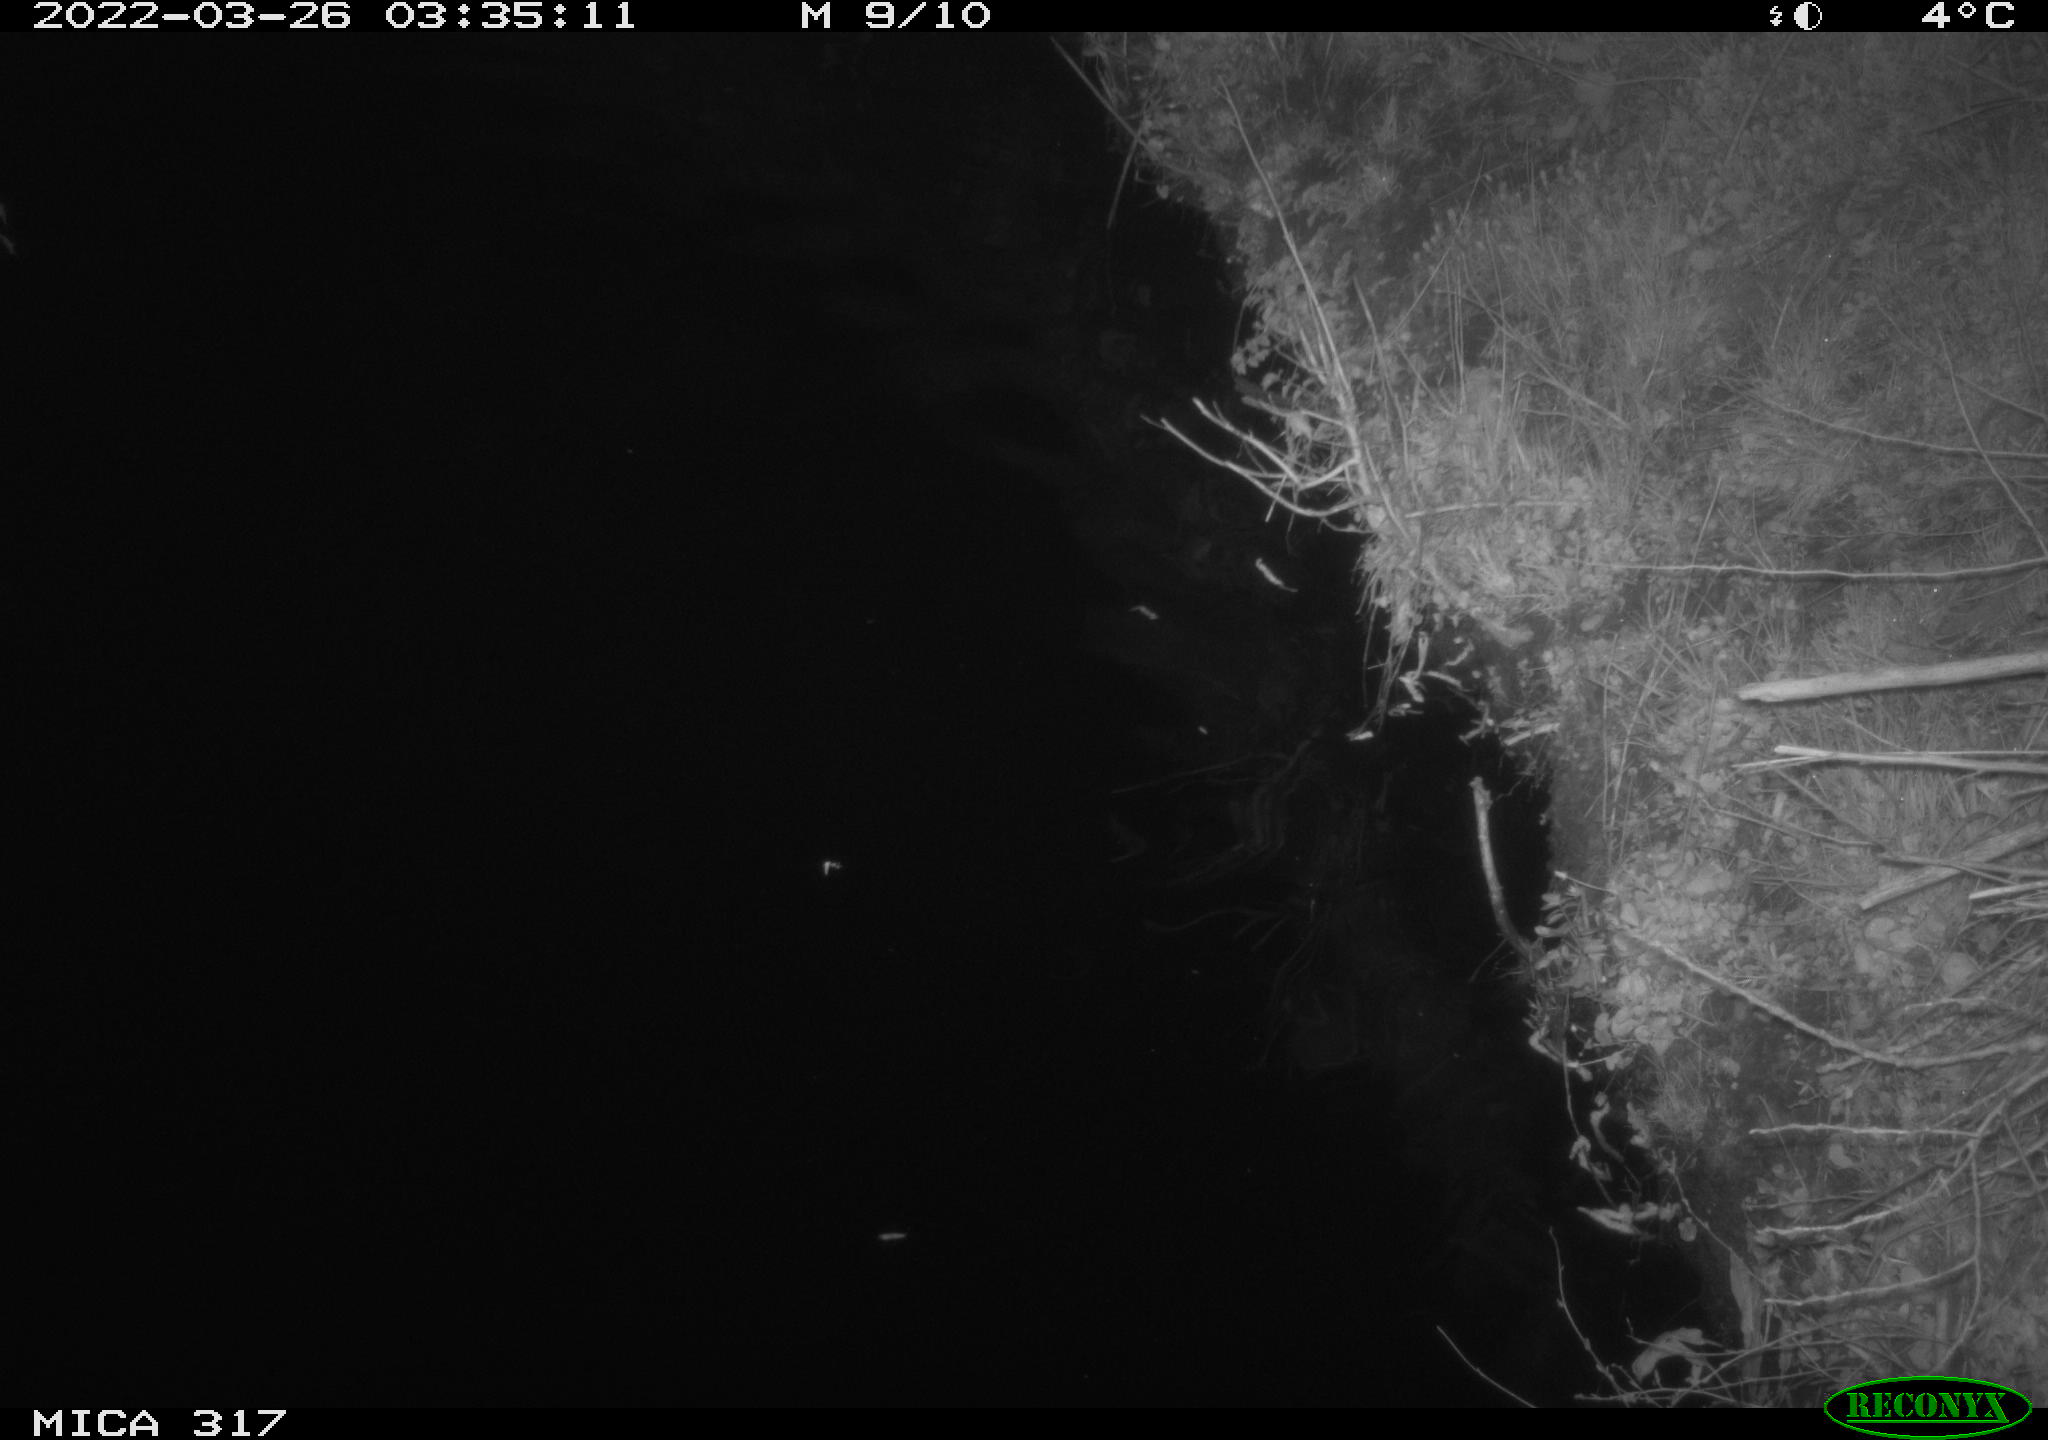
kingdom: Animalia
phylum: Chordata
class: Aves
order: Anseriformes
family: Anatidae
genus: Anas
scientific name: Anas platyrhynchos
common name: Mallard
